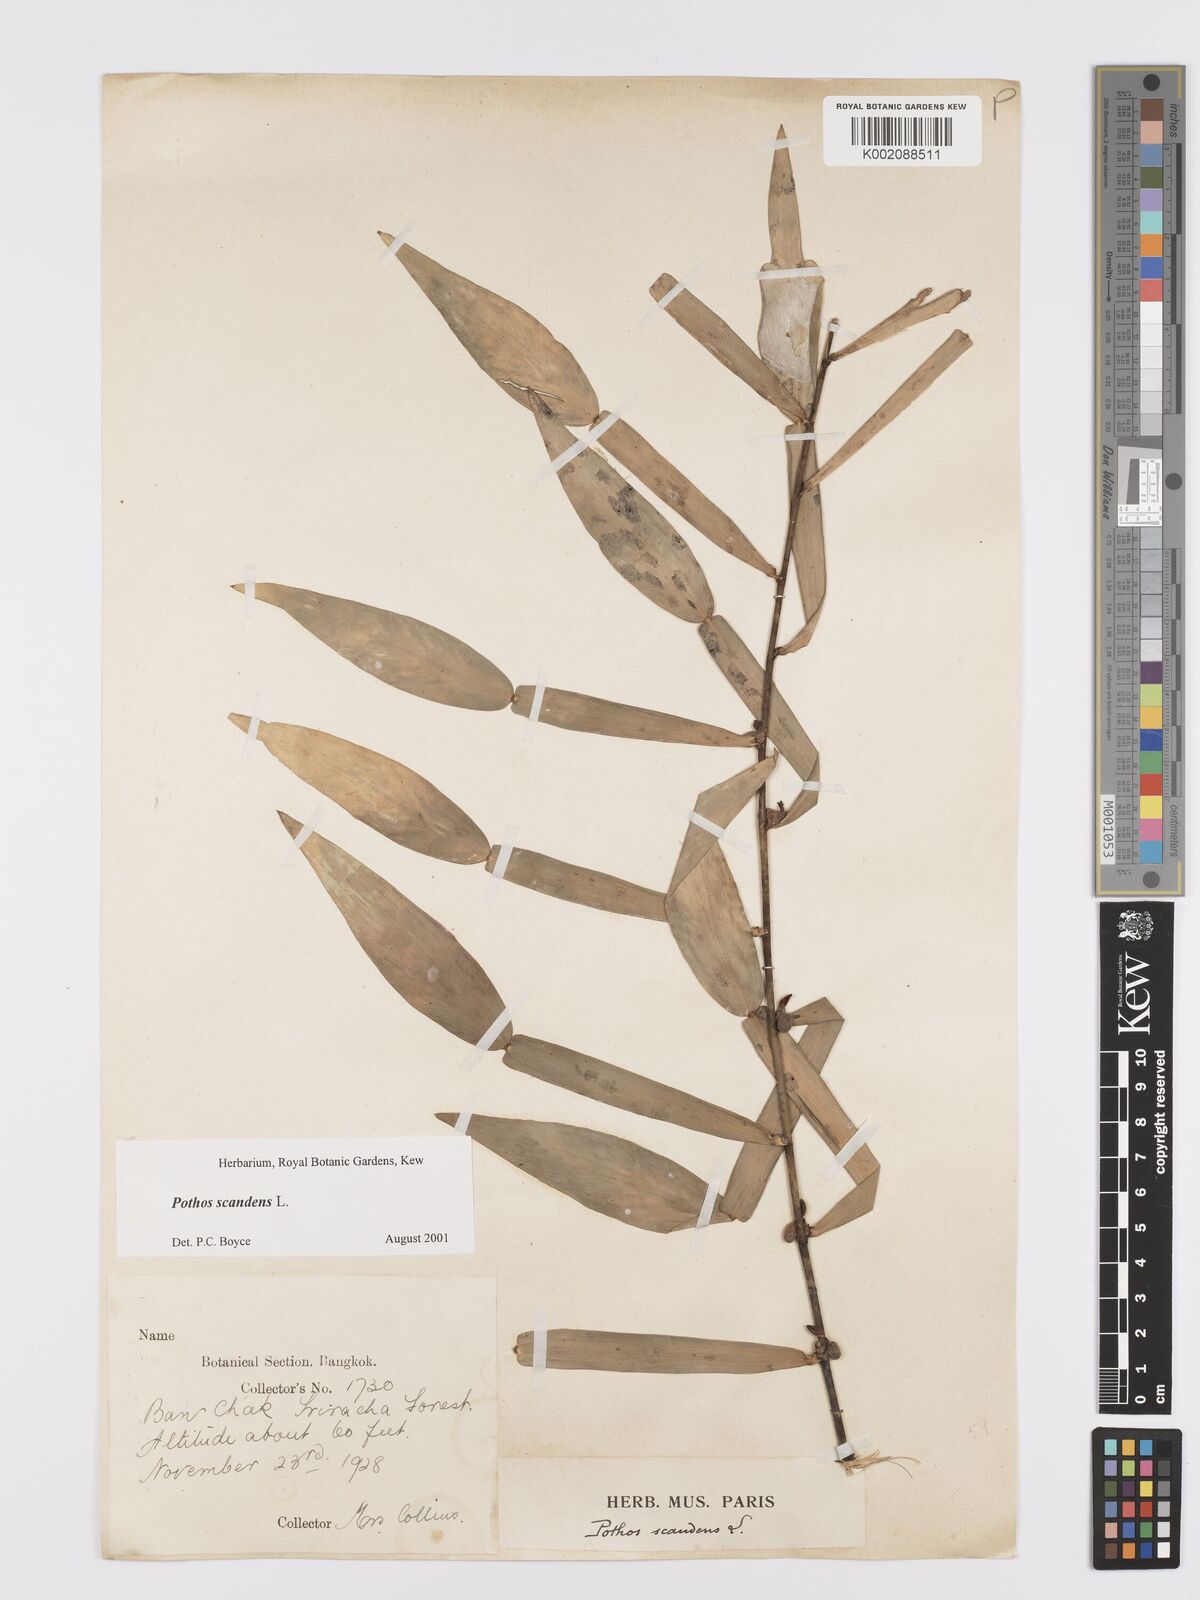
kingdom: Plantae
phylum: Tracheophyta
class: Liliopsida
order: Alismatales
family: Araceae
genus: Pothos
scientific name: Pothos scandens
